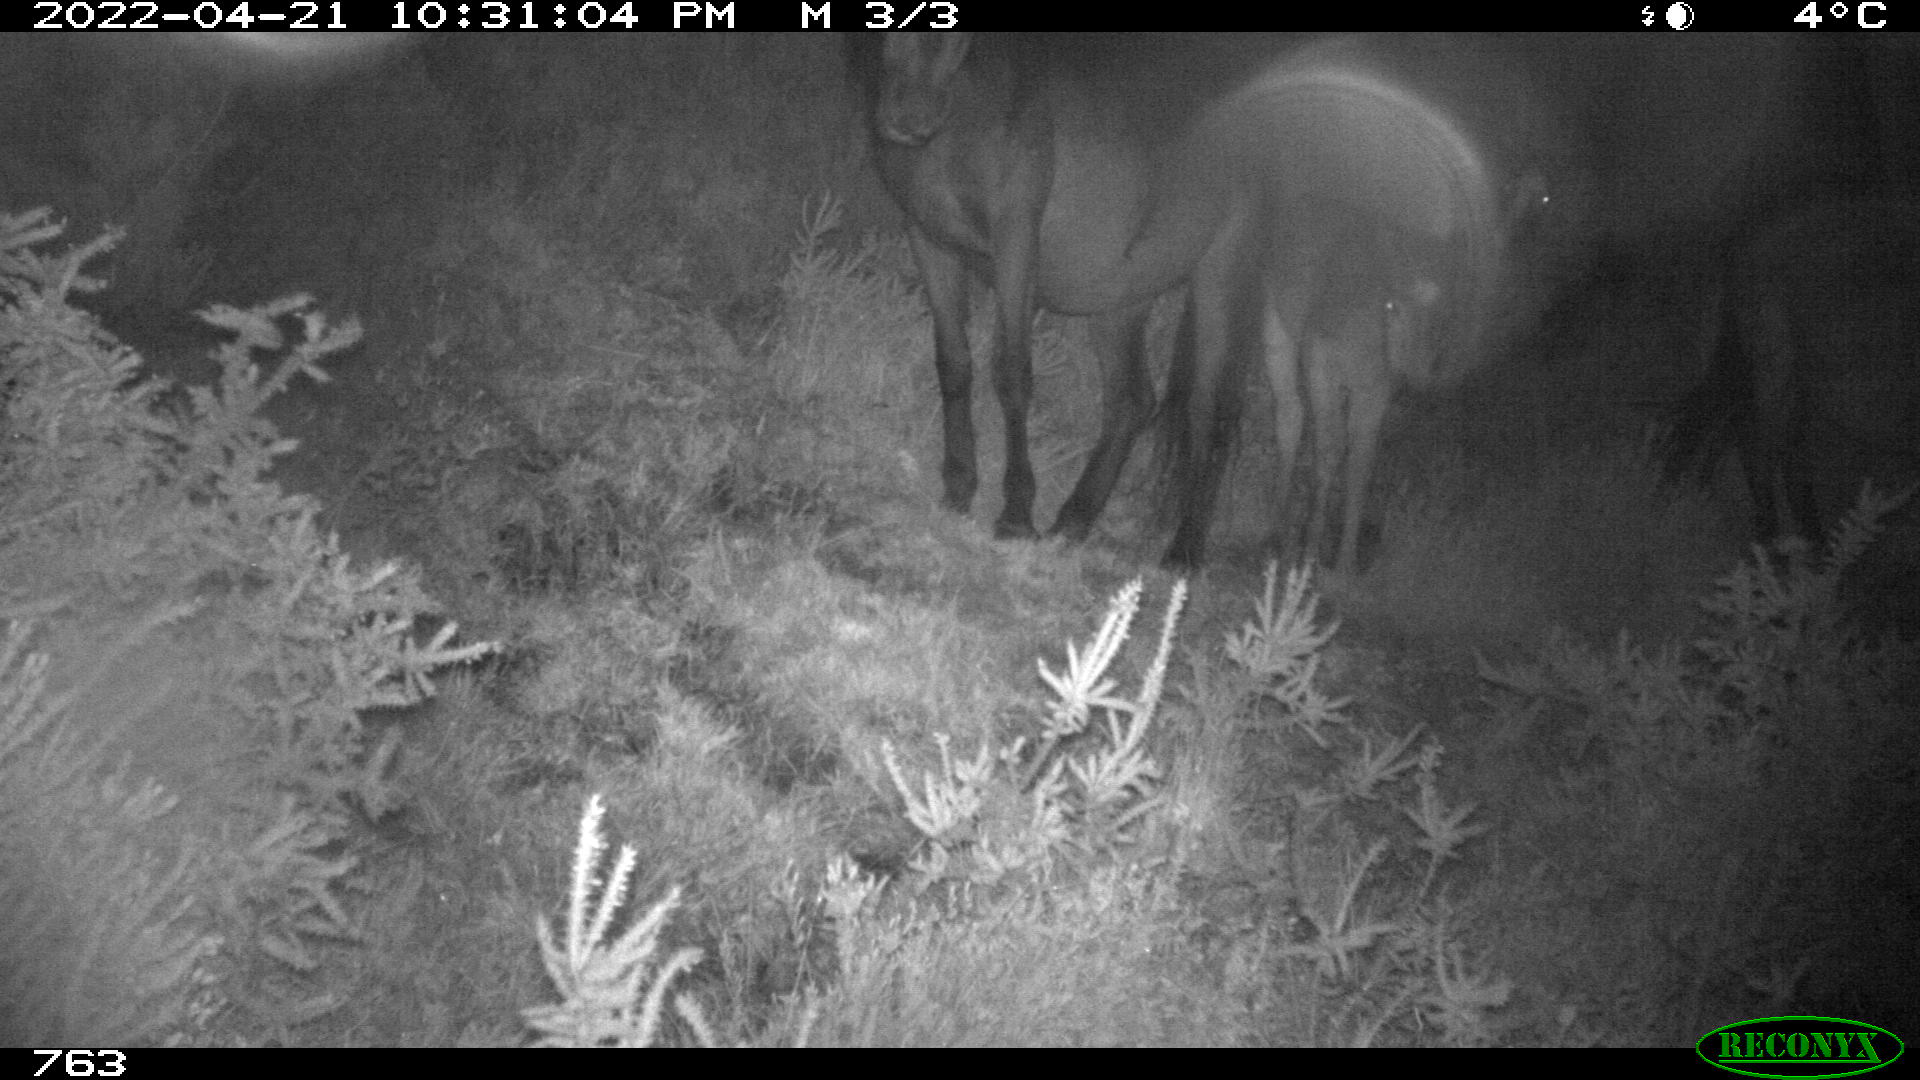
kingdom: Animalia
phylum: Chordata
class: Mammalia
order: Perissodactyla
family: Equidae
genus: Equus
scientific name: Equus caballus
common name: Horse
